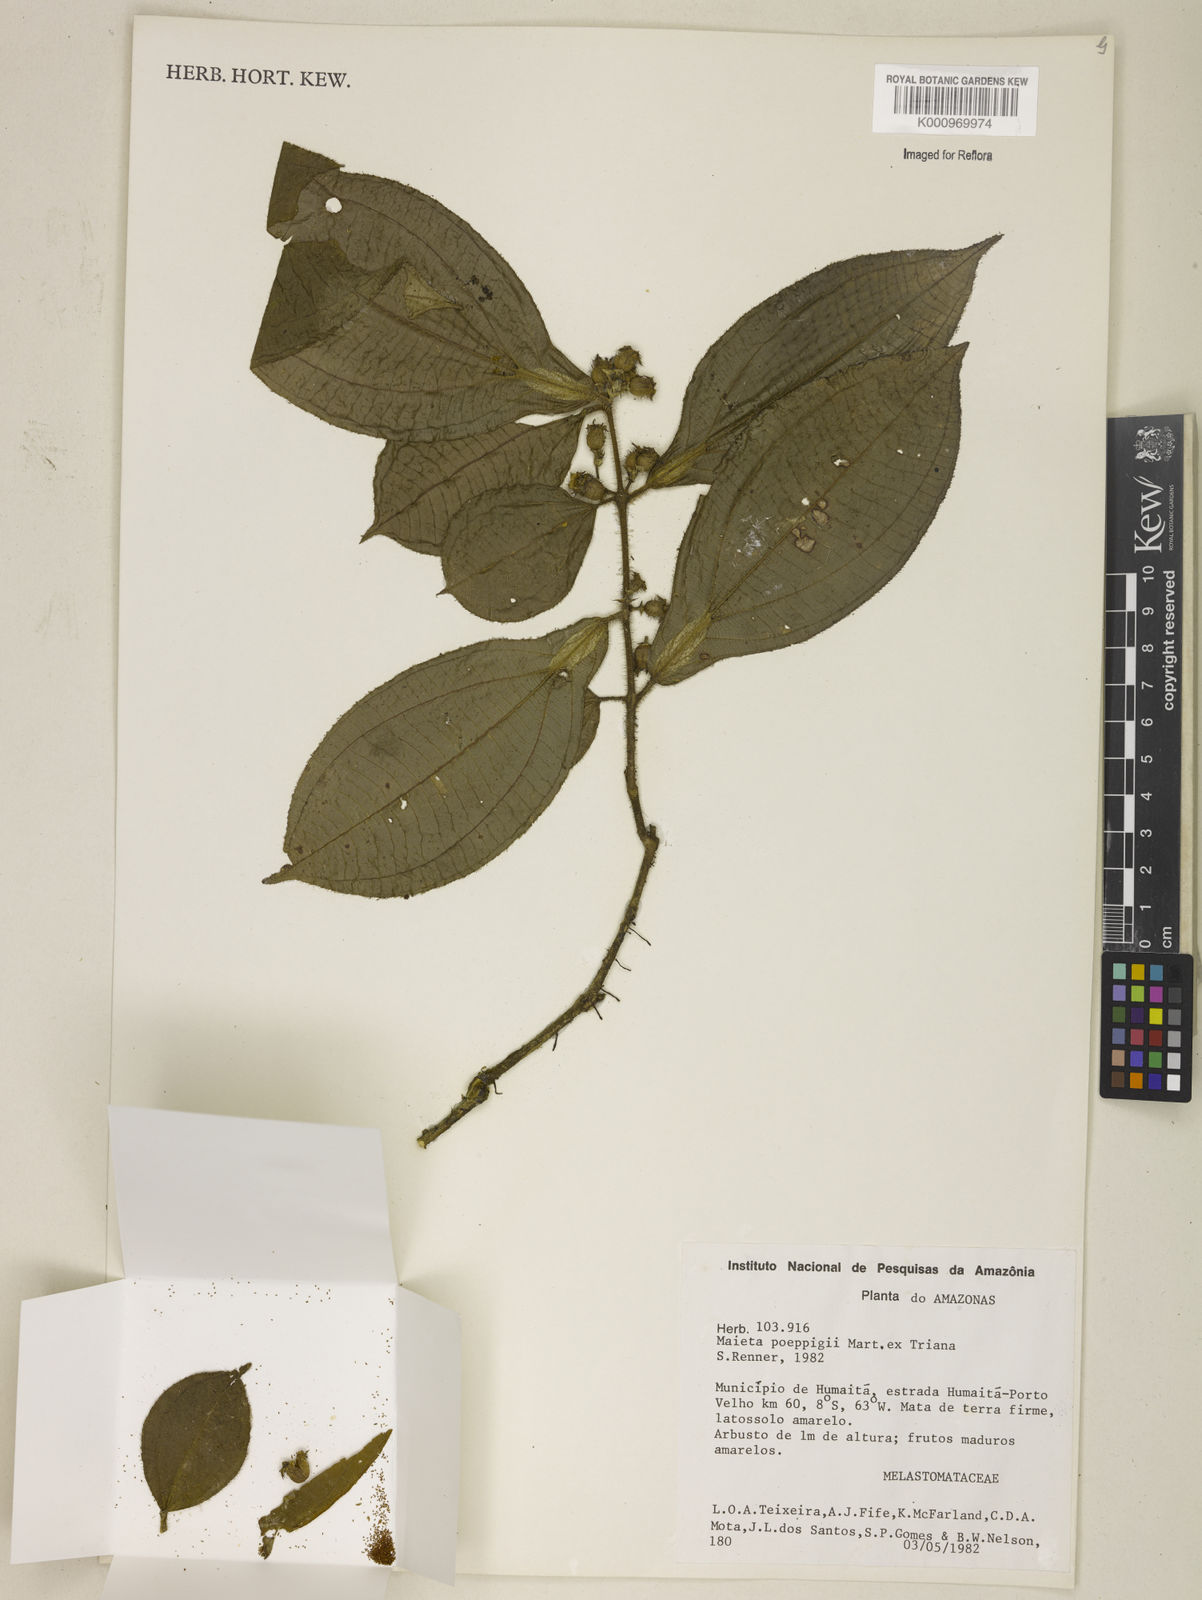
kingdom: Plantae
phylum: Tracheophyta
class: Magnoliopsida
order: Myrtales
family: Melastomataceae
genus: Miconia
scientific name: Miconia alternidomatia
